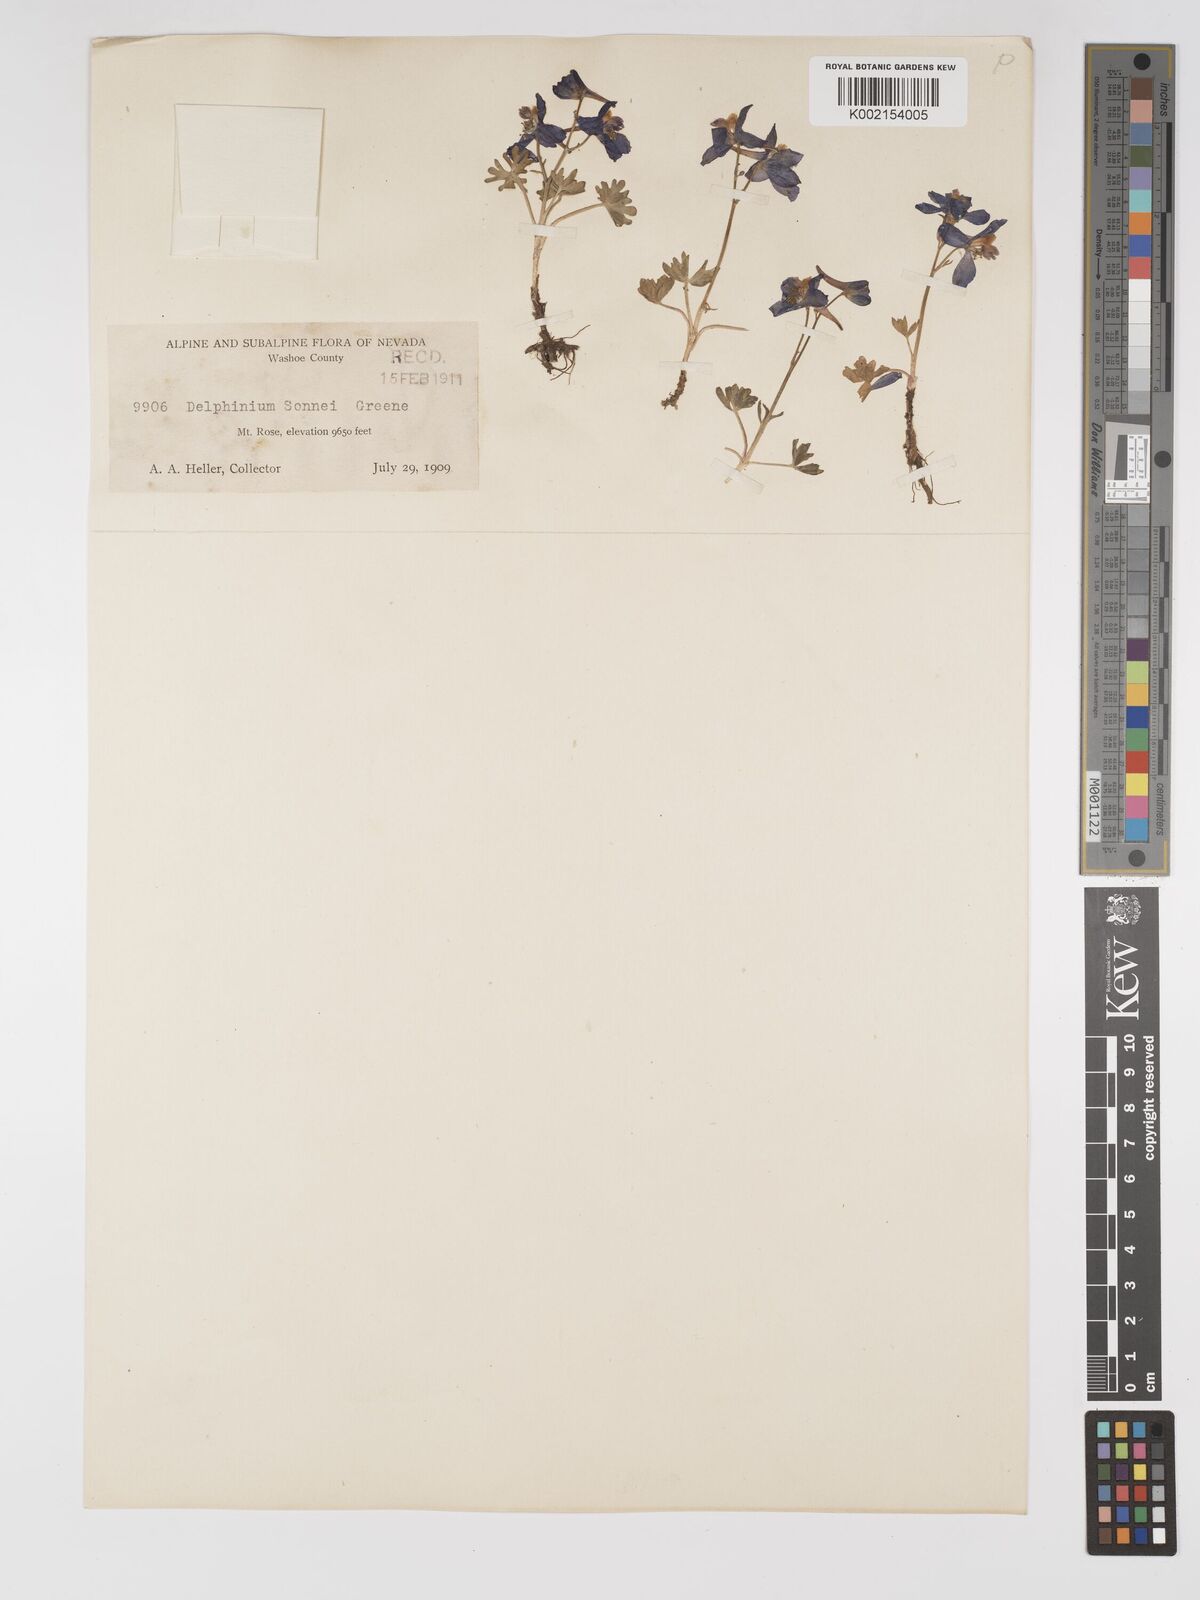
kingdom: Plantae
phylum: Tracheophyta
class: Magnoliopsida
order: Ranunculales
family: Ranunculaceae
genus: Delphinium
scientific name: Delphinium nuttallianum
